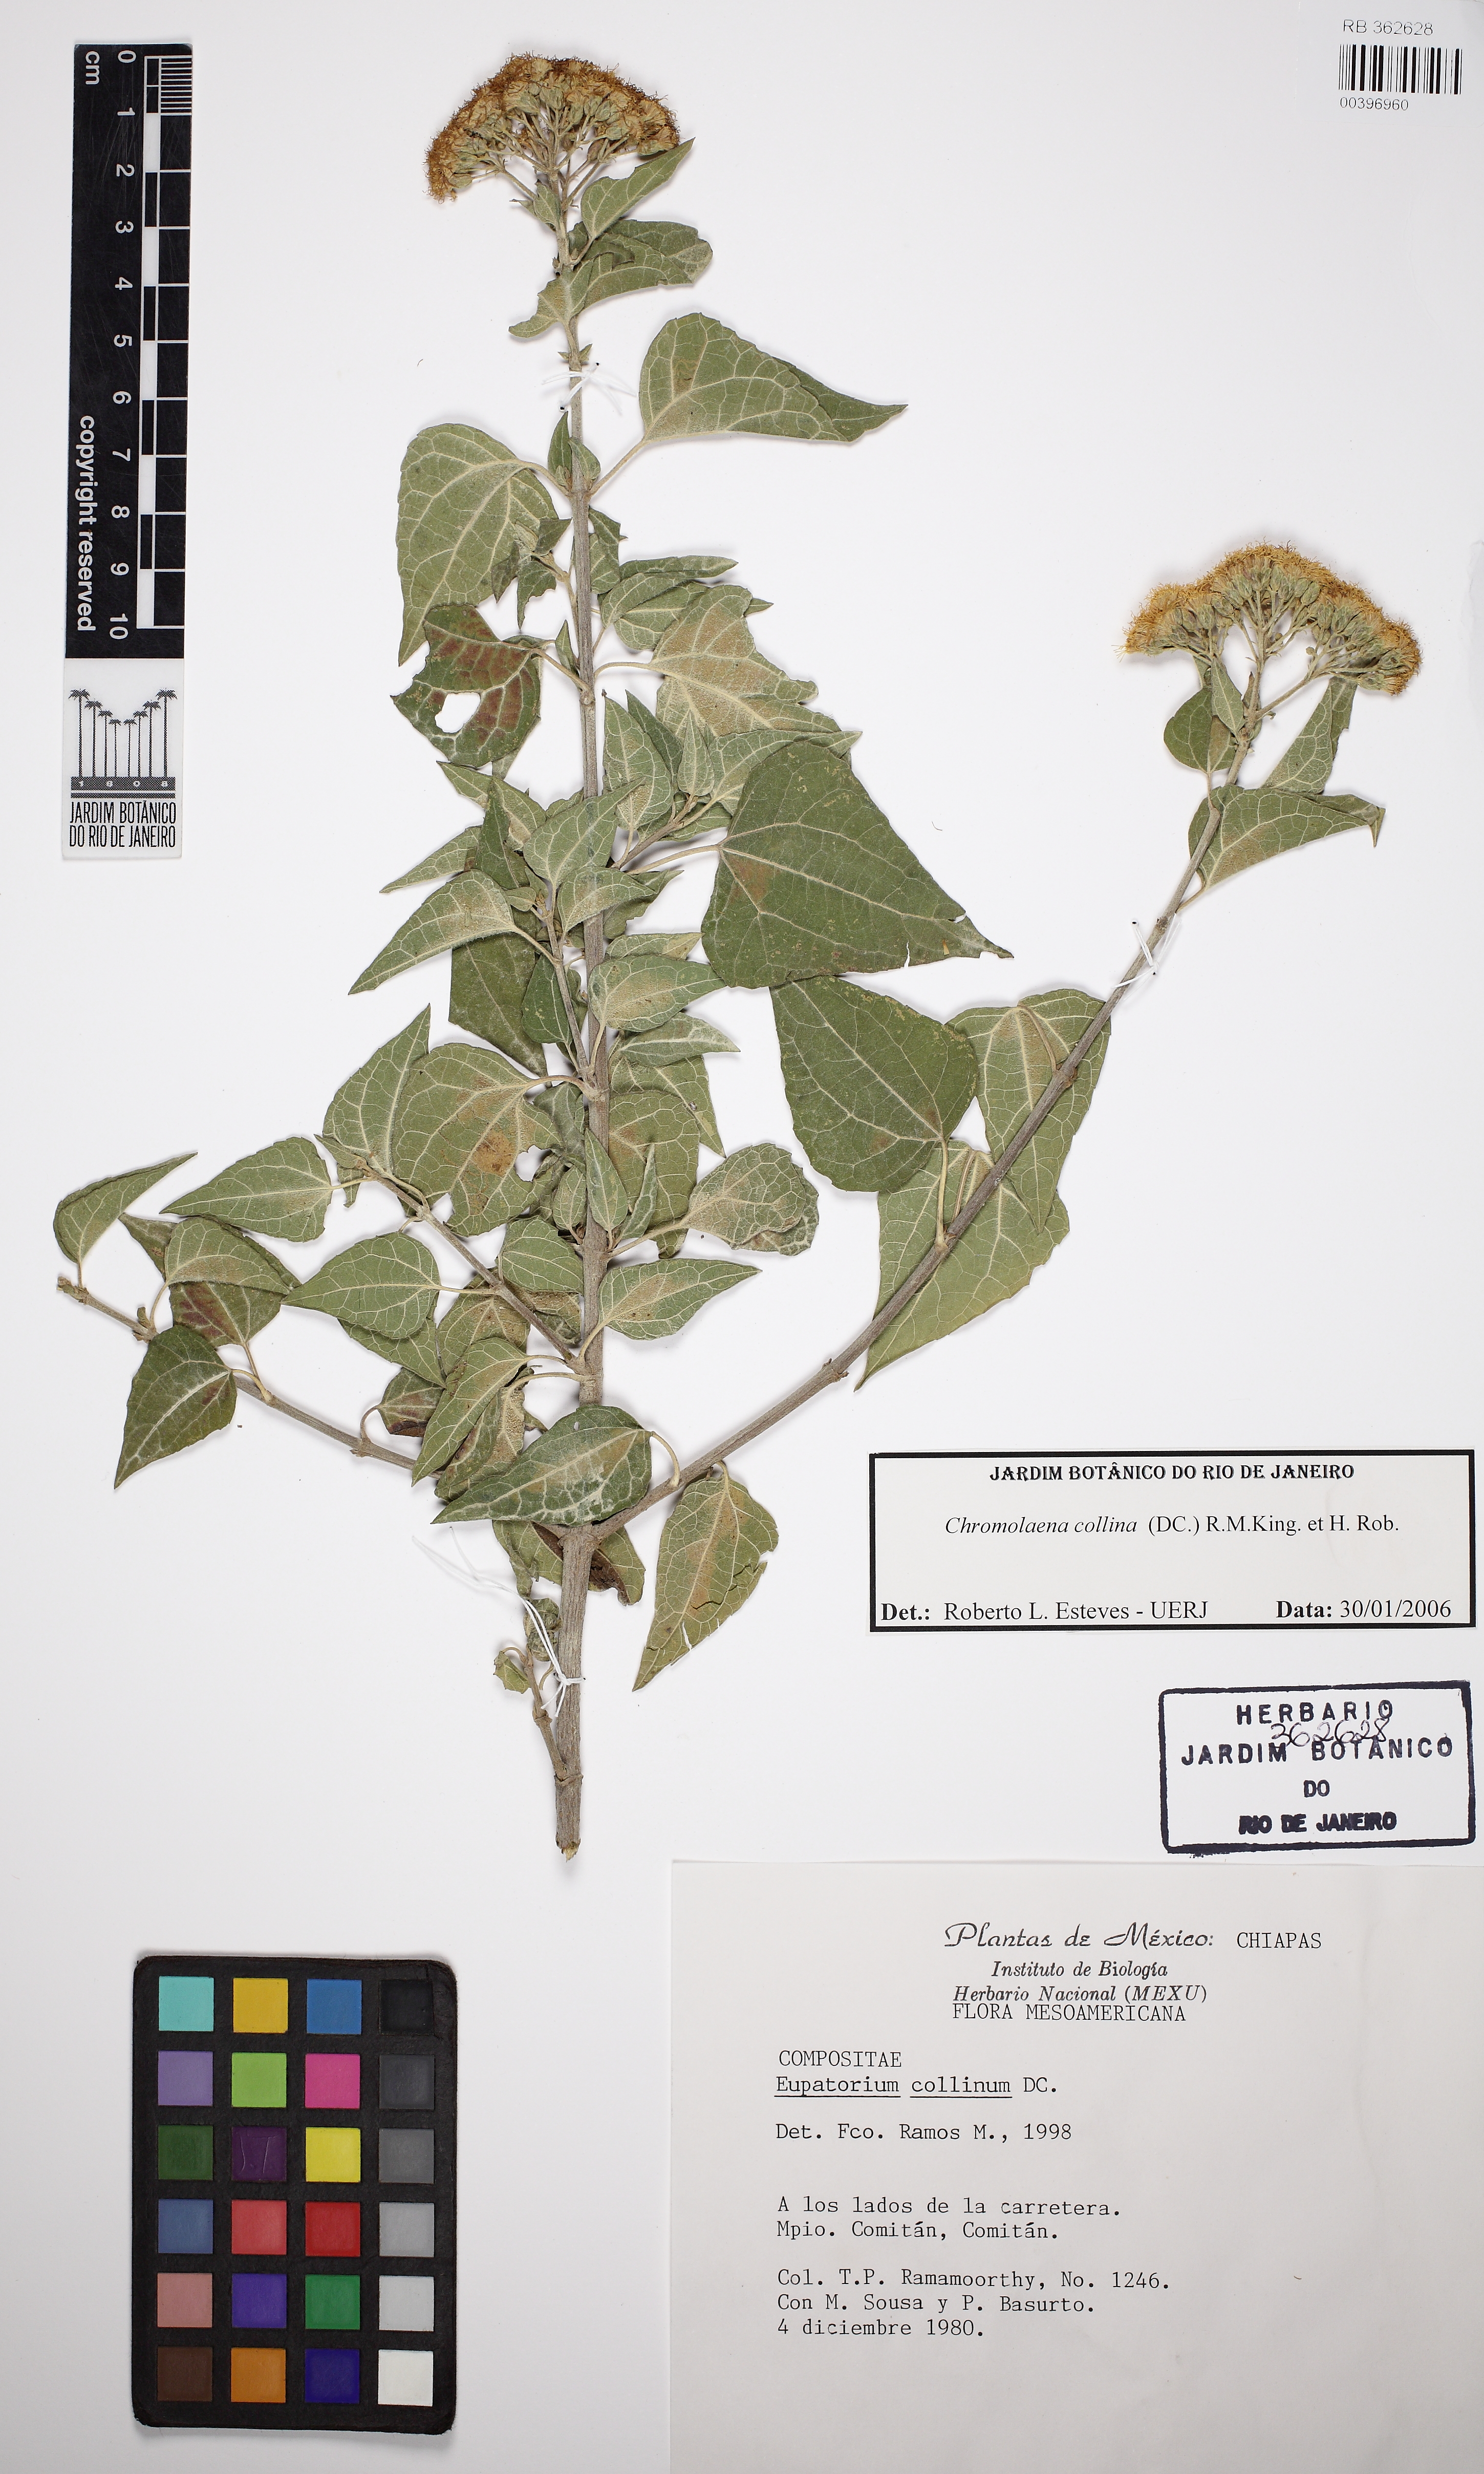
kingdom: Plantae
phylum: Tracheophyta
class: Magnoliopsida
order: Asterales
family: Asteraceae
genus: Chromolaena
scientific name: Chromolaena collina
